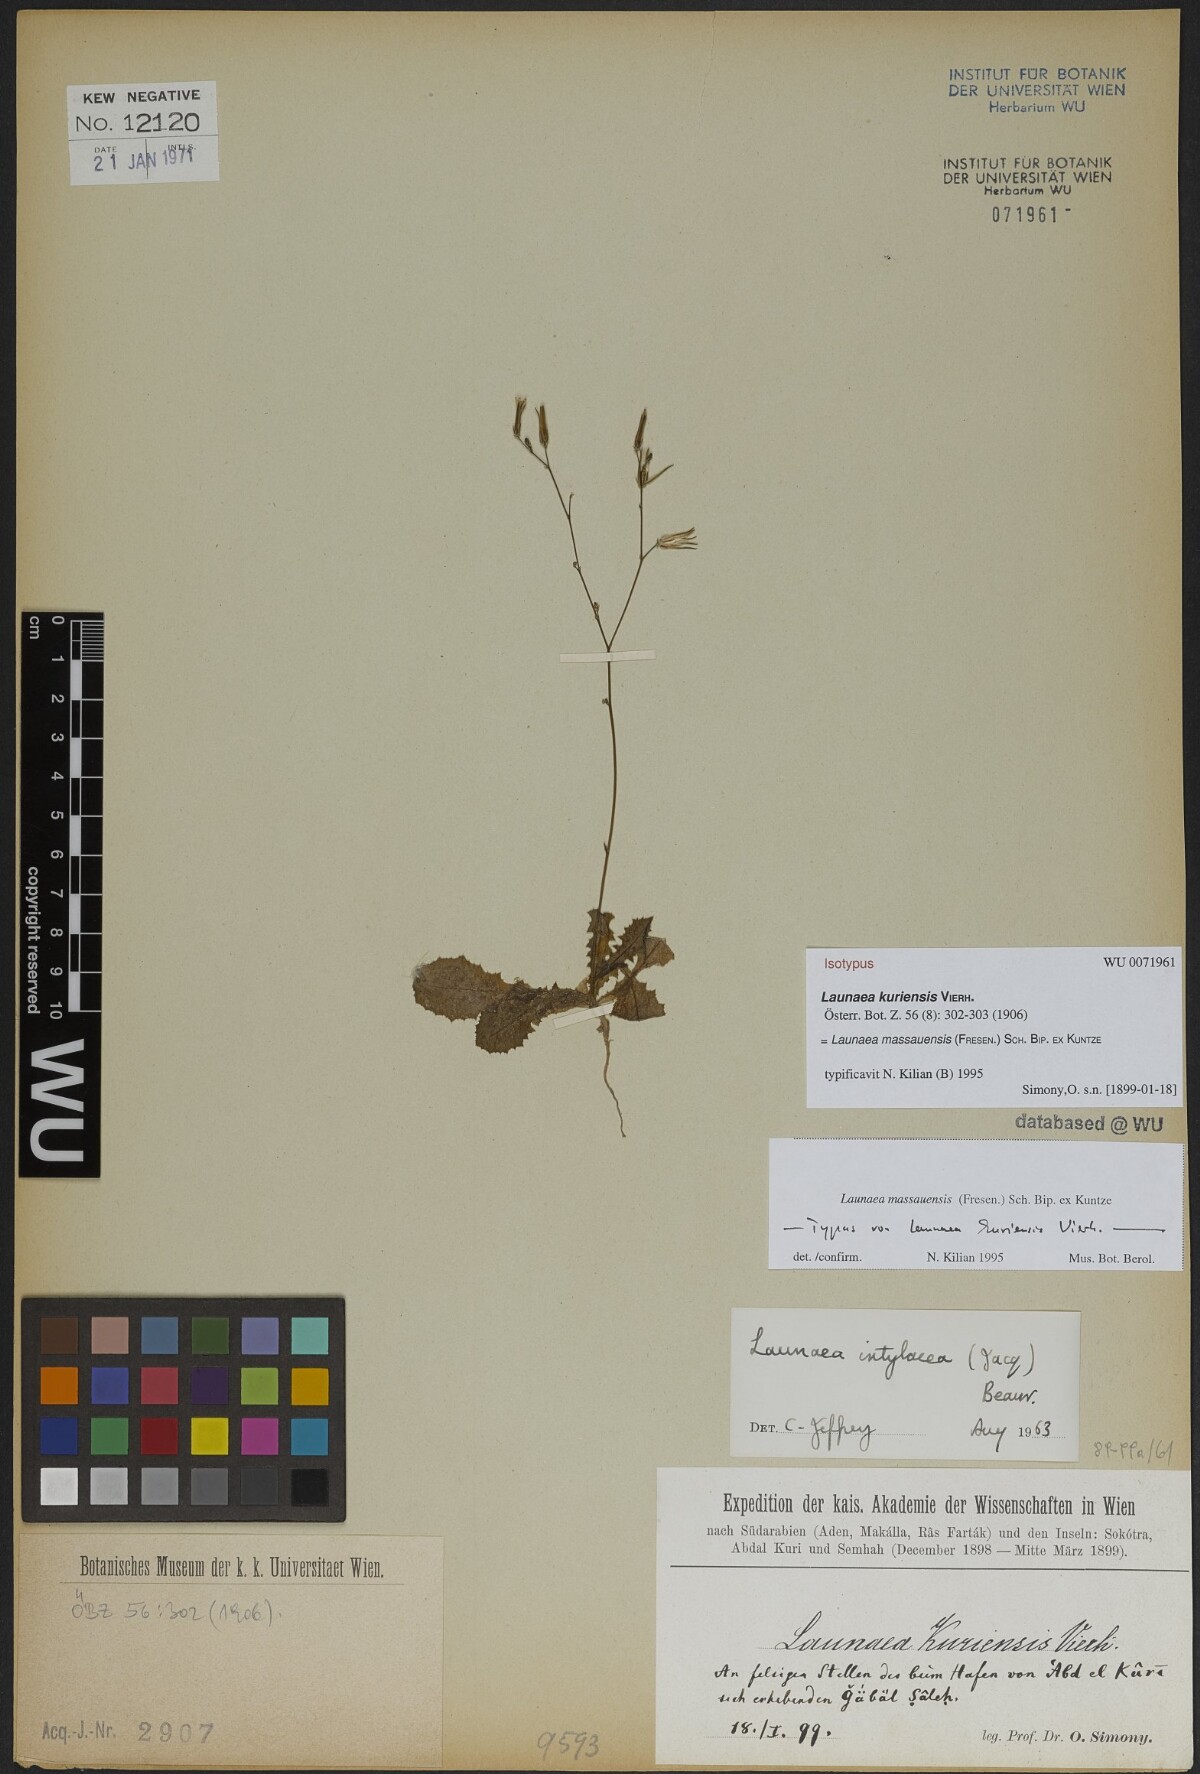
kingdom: Plantae
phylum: Tracheophyta
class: Magnoliopsida
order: Asterales
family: Asteraceae
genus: Launaea
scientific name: Launaea massauensis
